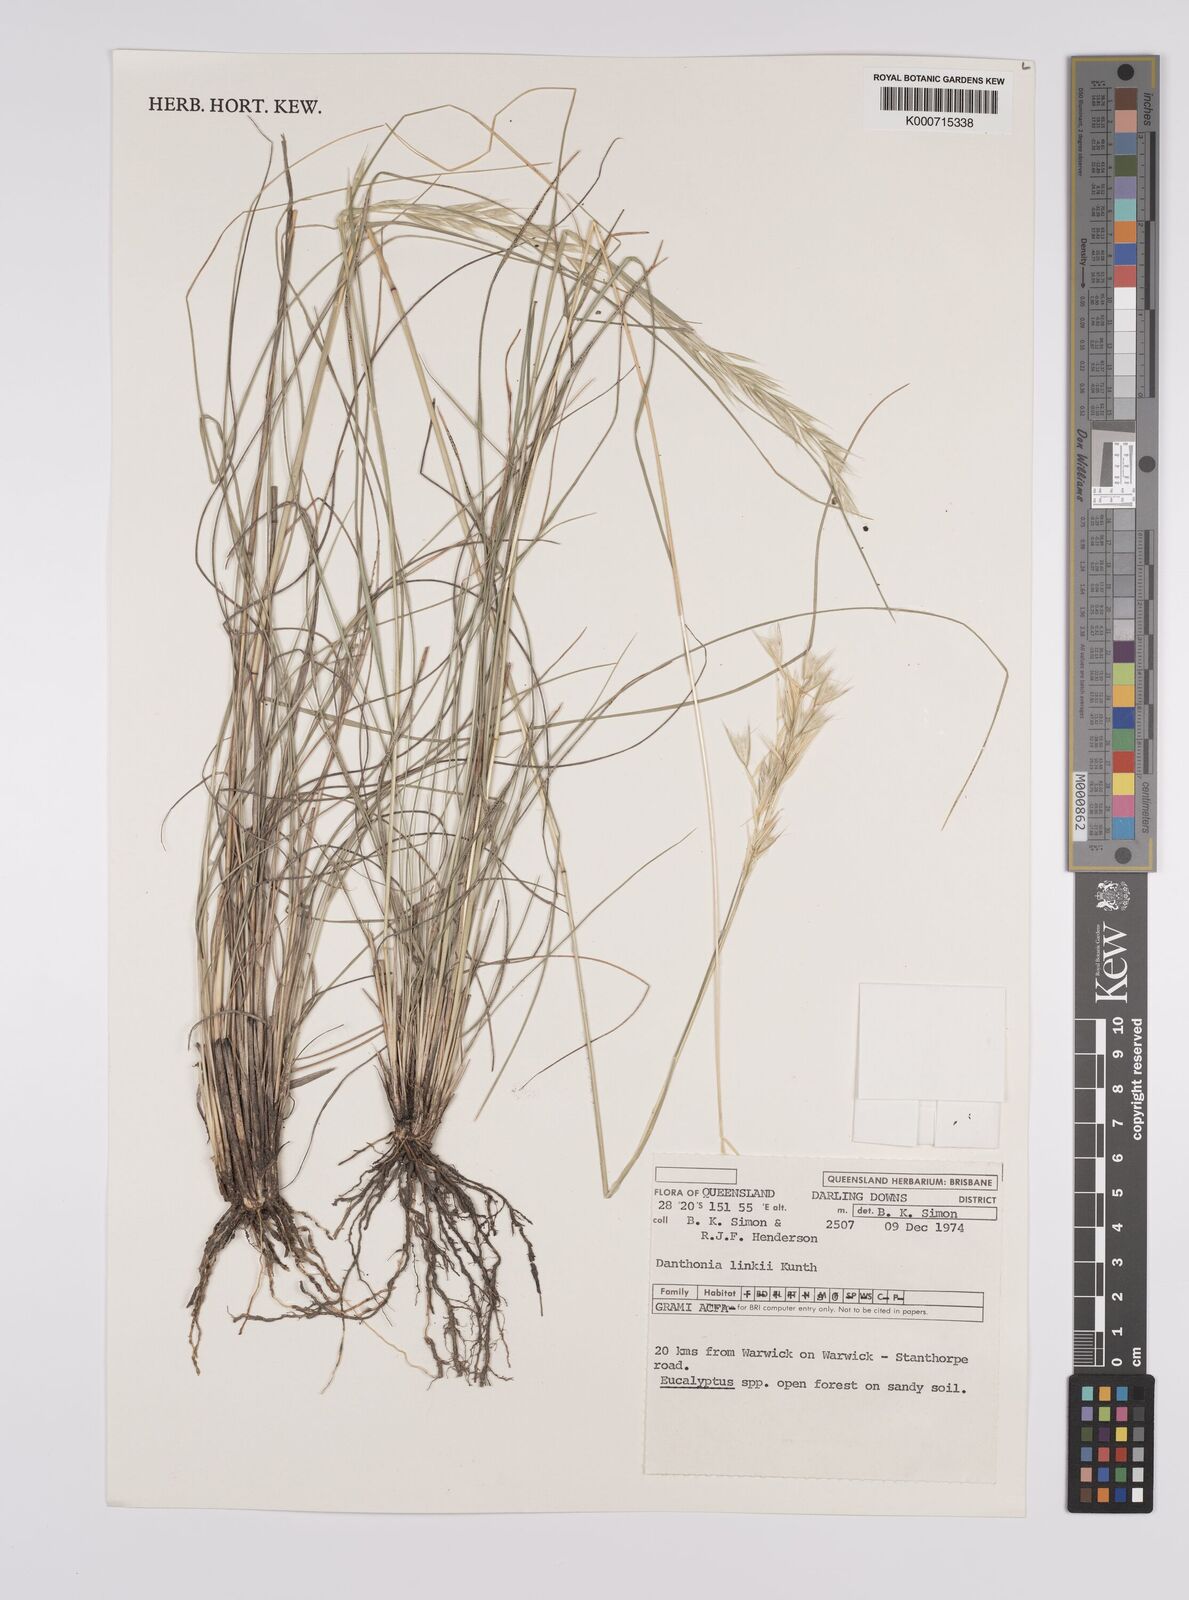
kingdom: Plantae
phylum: Tracheophyta
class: Liliopsida
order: Poales
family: Poaceae
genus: Rytidosperma
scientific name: Rytidosperma bipartitum
